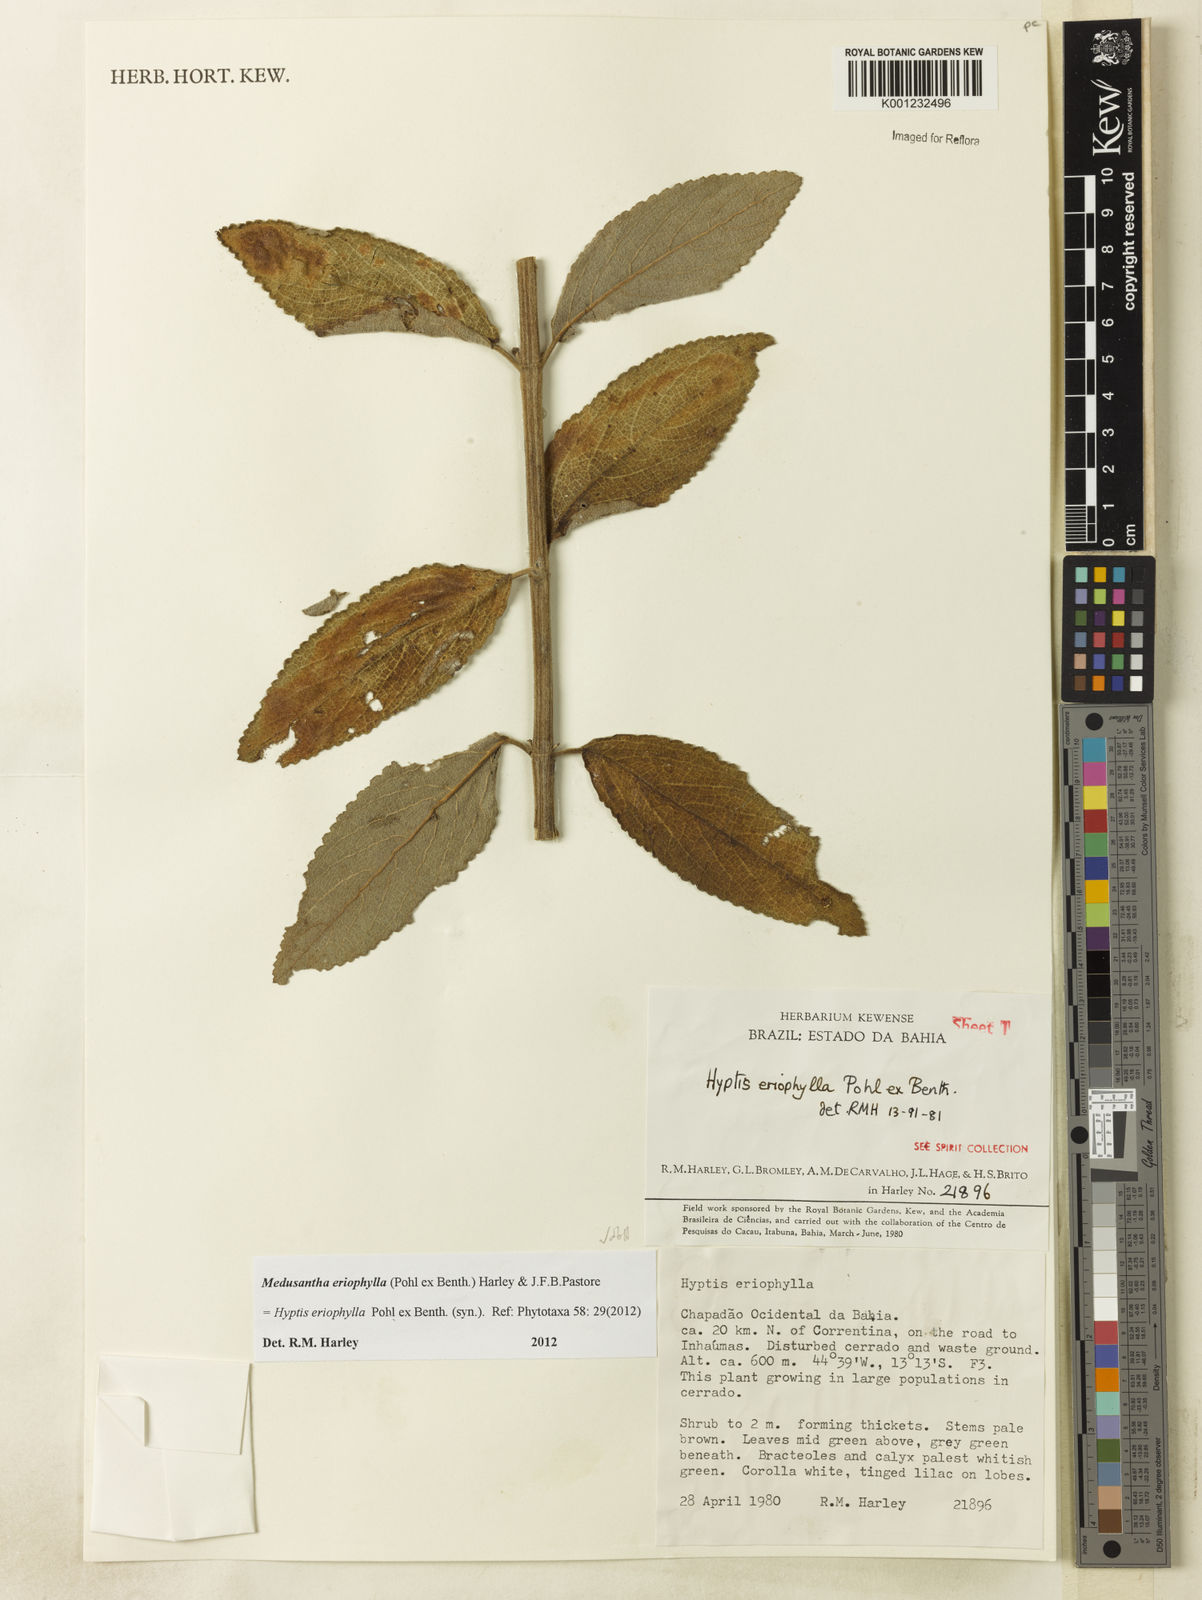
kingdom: Plantae
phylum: Tracheophyta
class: Magnoliopsida
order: Lamiales
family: Lamiaceae
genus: Medusantha
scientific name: Medusantha eriophylla
